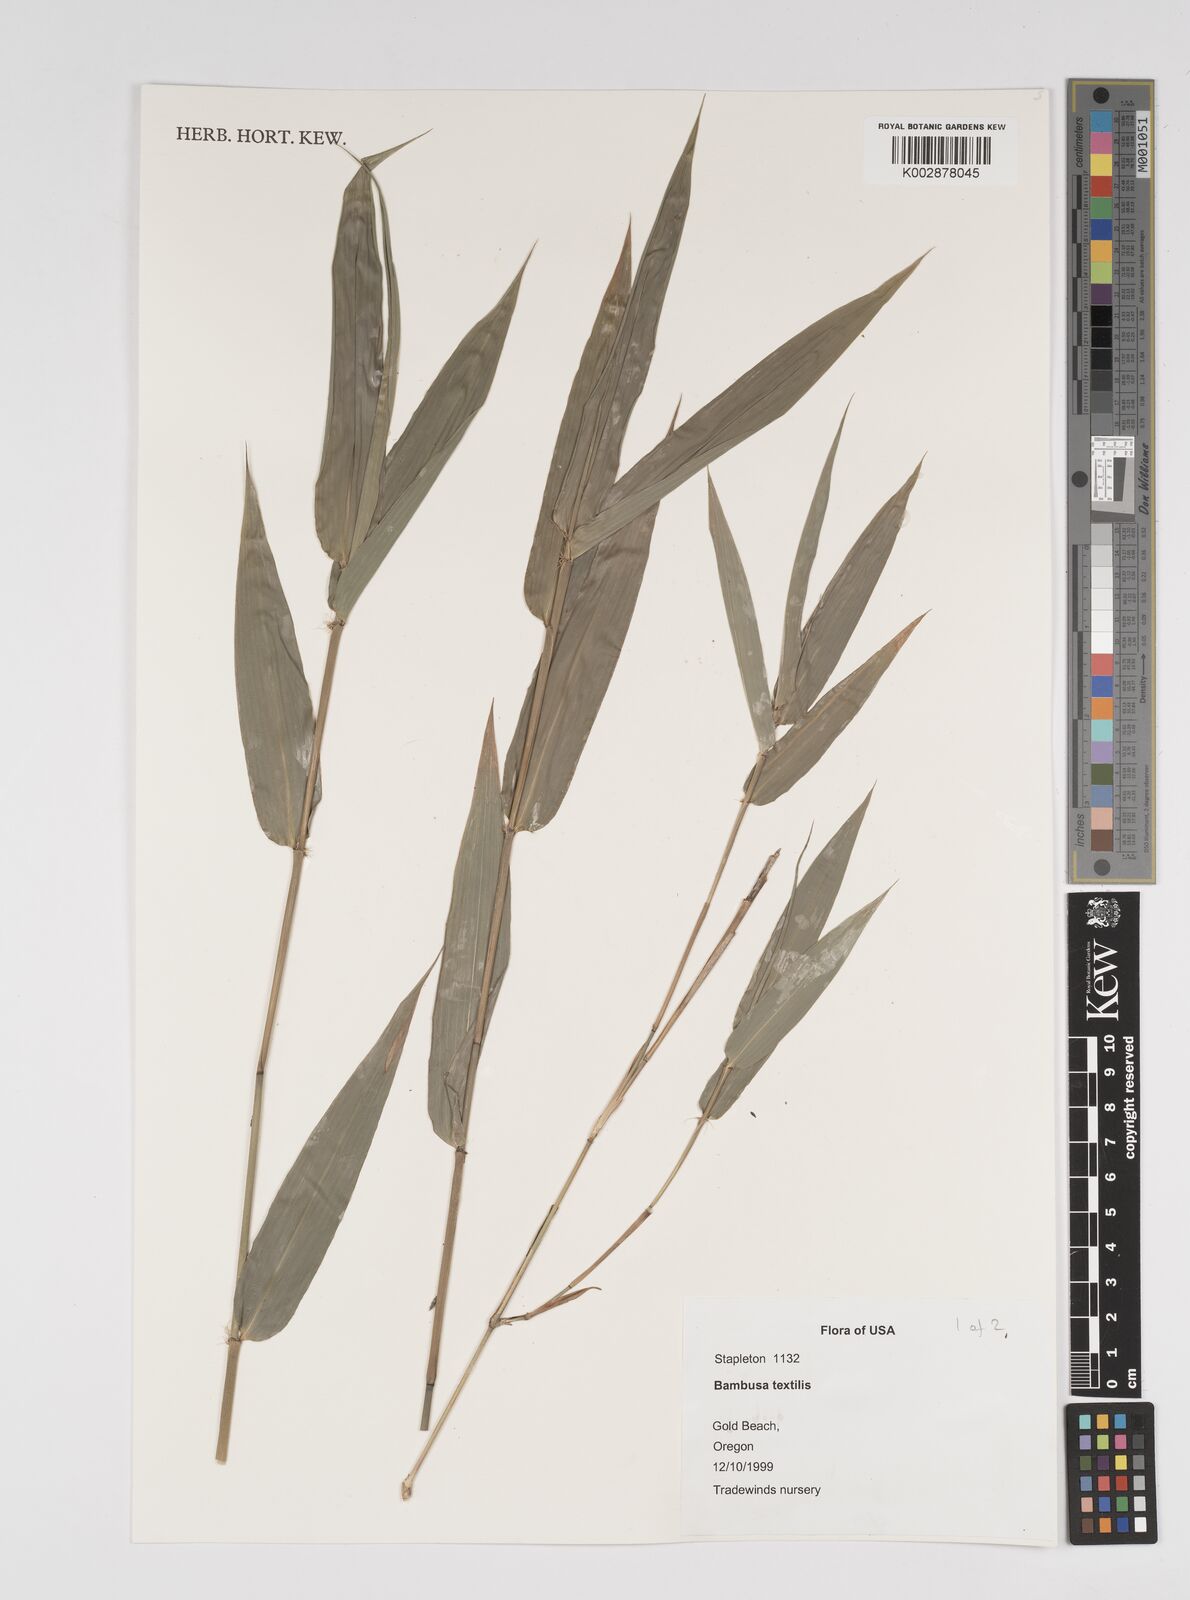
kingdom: Plantae
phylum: Tracheophyta
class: Liliopsida
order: Poales
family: Poaceae
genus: Bambusa
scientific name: Bambusa textilis
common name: Weaver's bamboo
